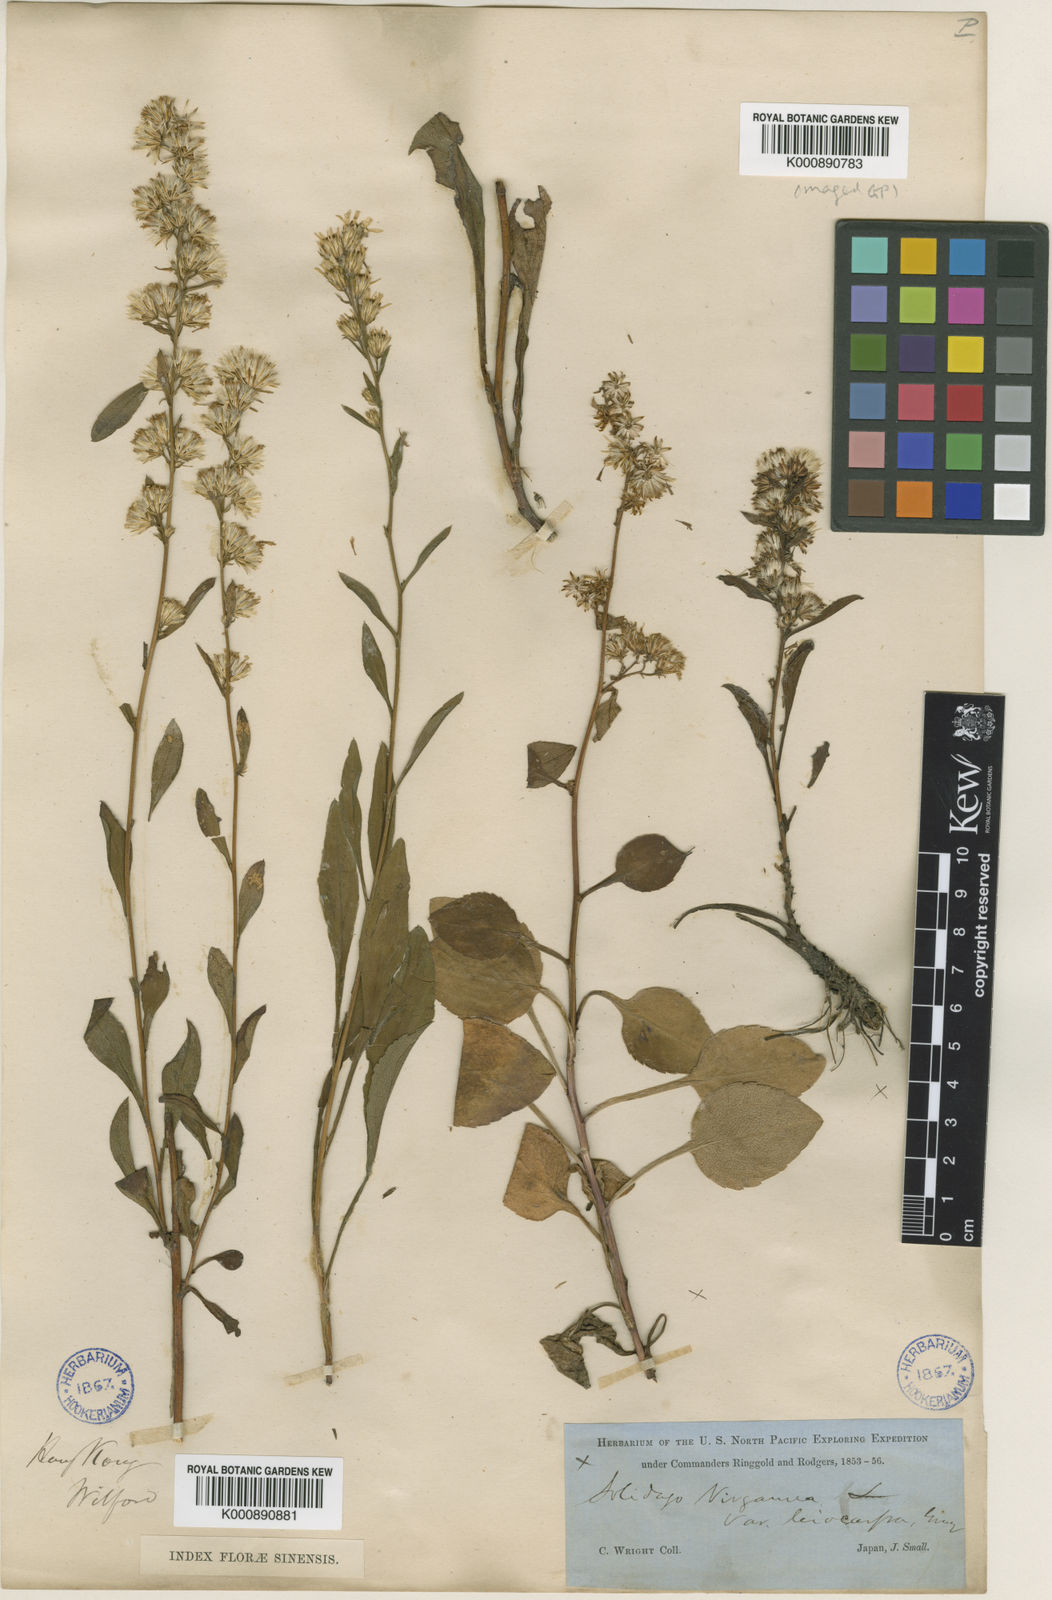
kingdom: Plantae
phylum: Tracheophyta
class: Magnoliopsida
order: Asterales
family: Asteraceae
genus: Solidago
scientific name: Solidago decurrens
